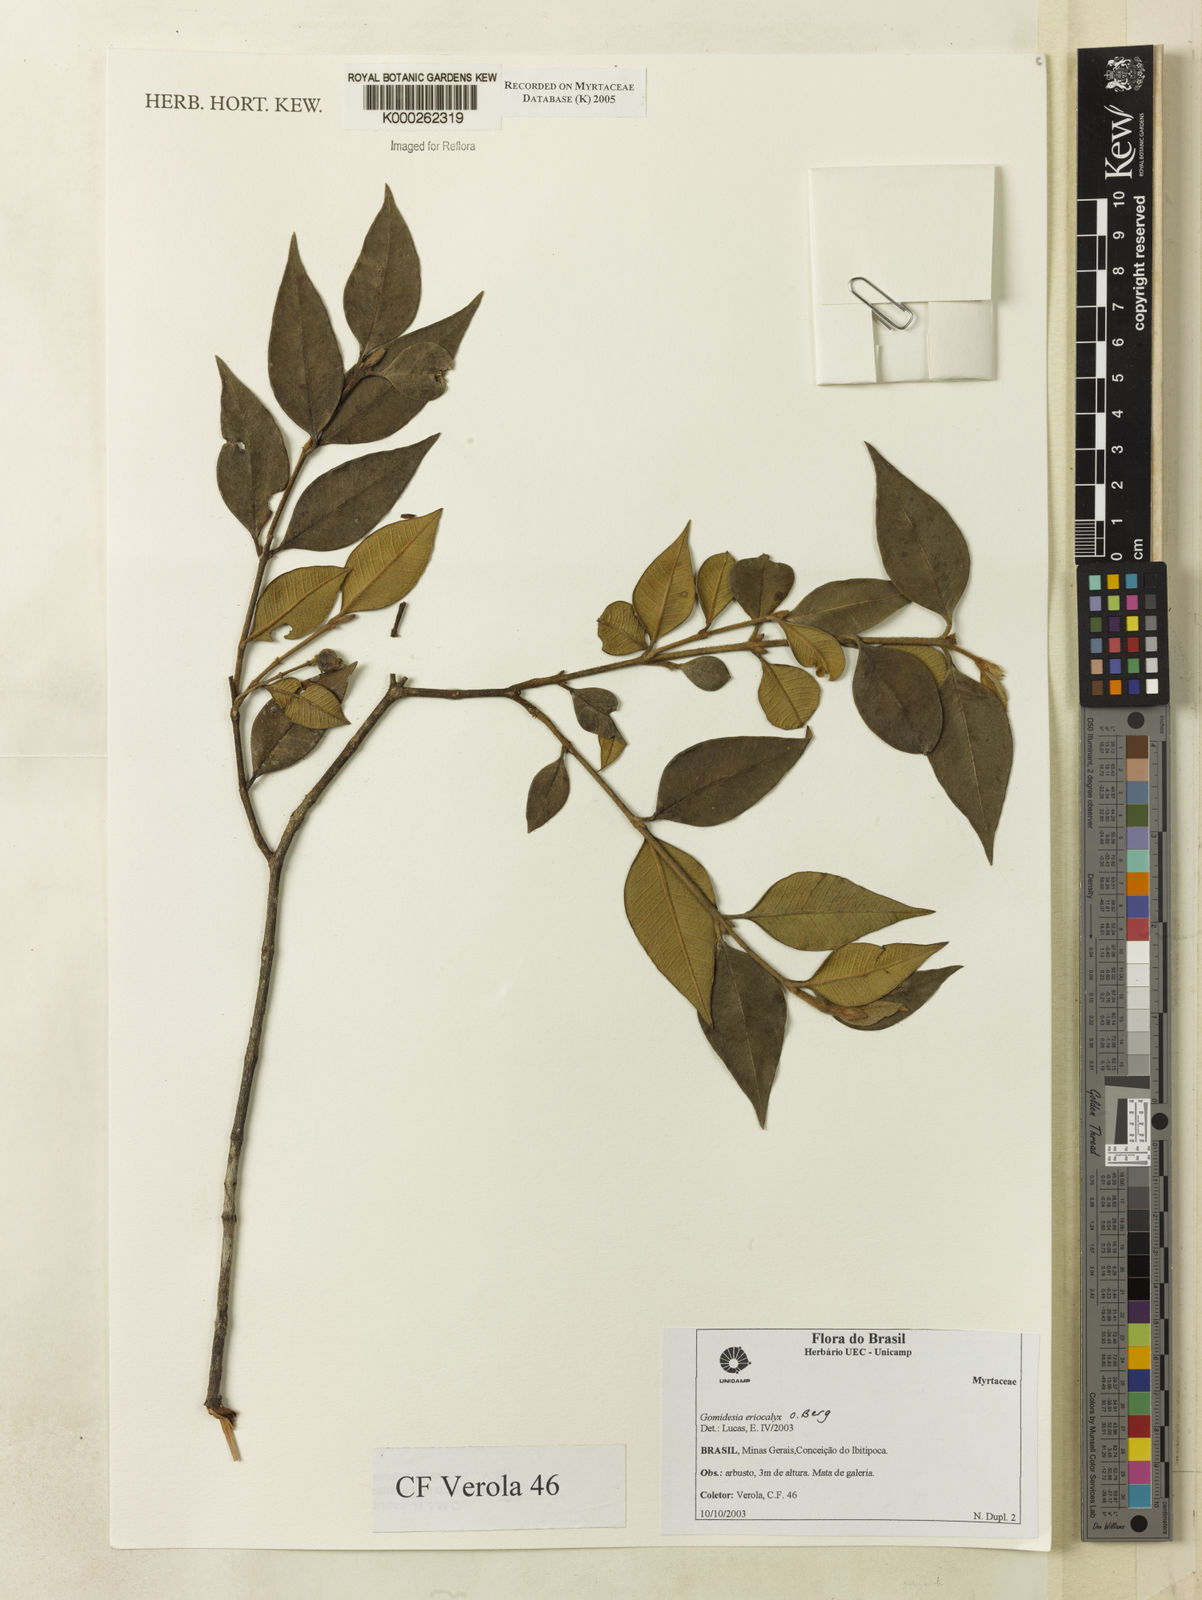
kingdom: Plantae
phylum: Tracheophyta
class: Magnoliopsida
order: Myrtales
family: Myrtaceae
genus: Myrcia
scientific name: Myrcia eriocalyx
